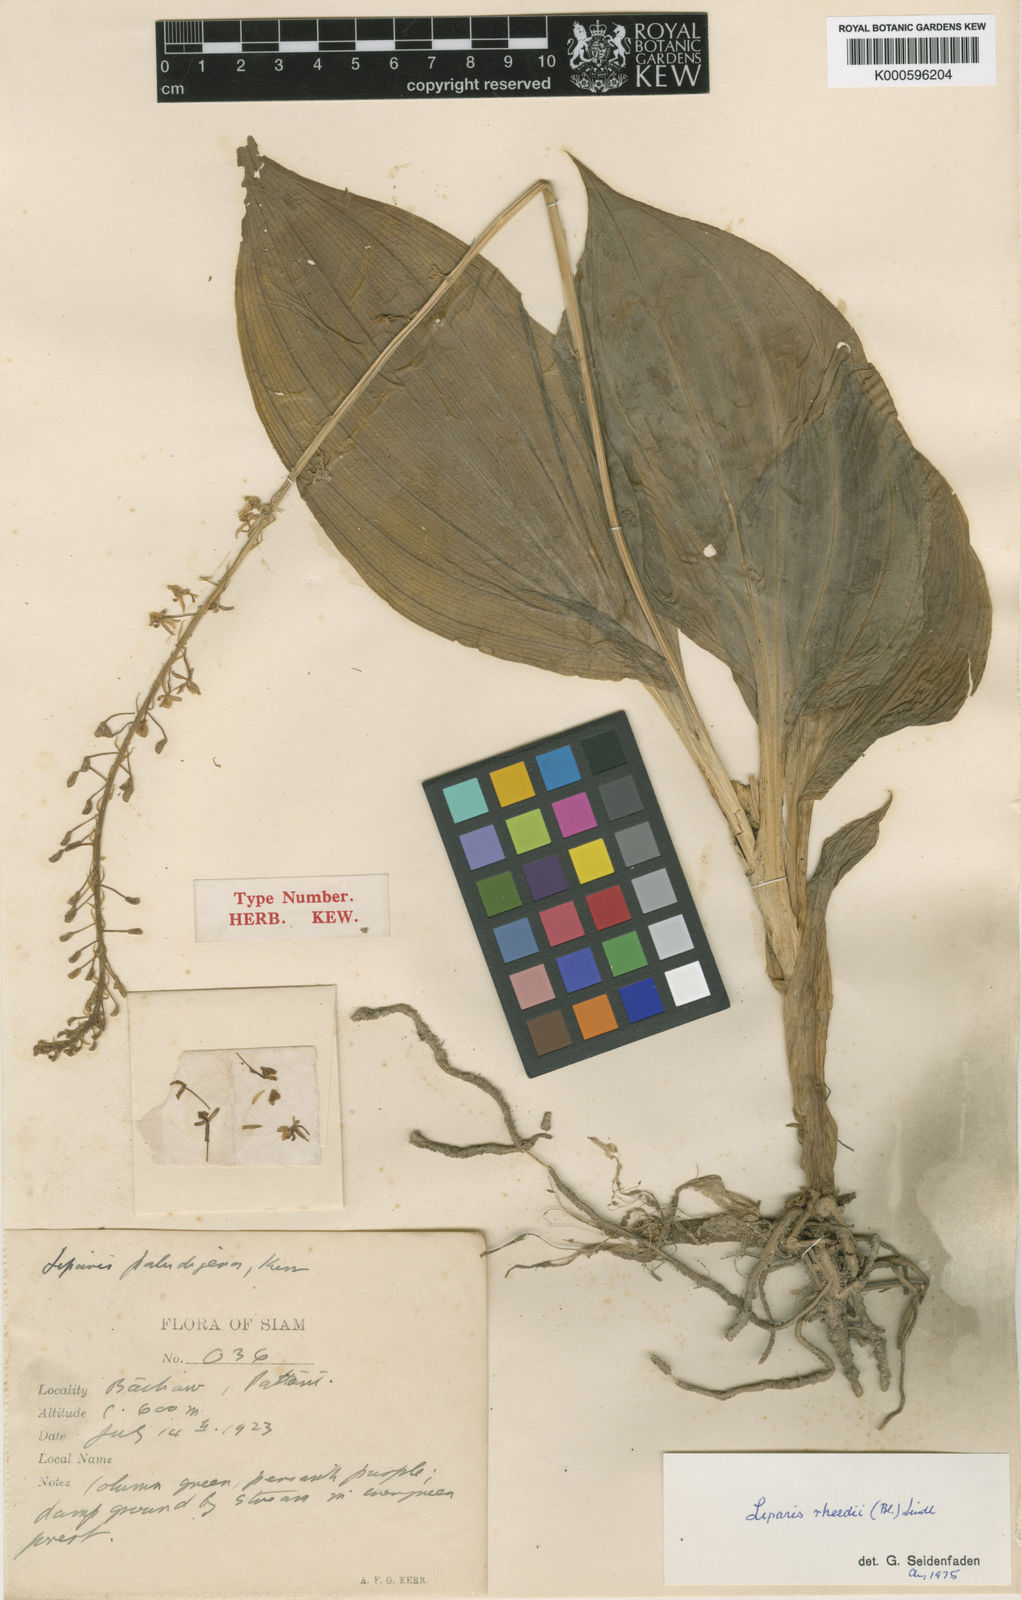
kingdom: Plantae
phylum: Tracheophyta
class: Liliopsida
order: Asparagales
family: Orchidaceae
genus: Liparis
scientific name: Liparis rheedei
